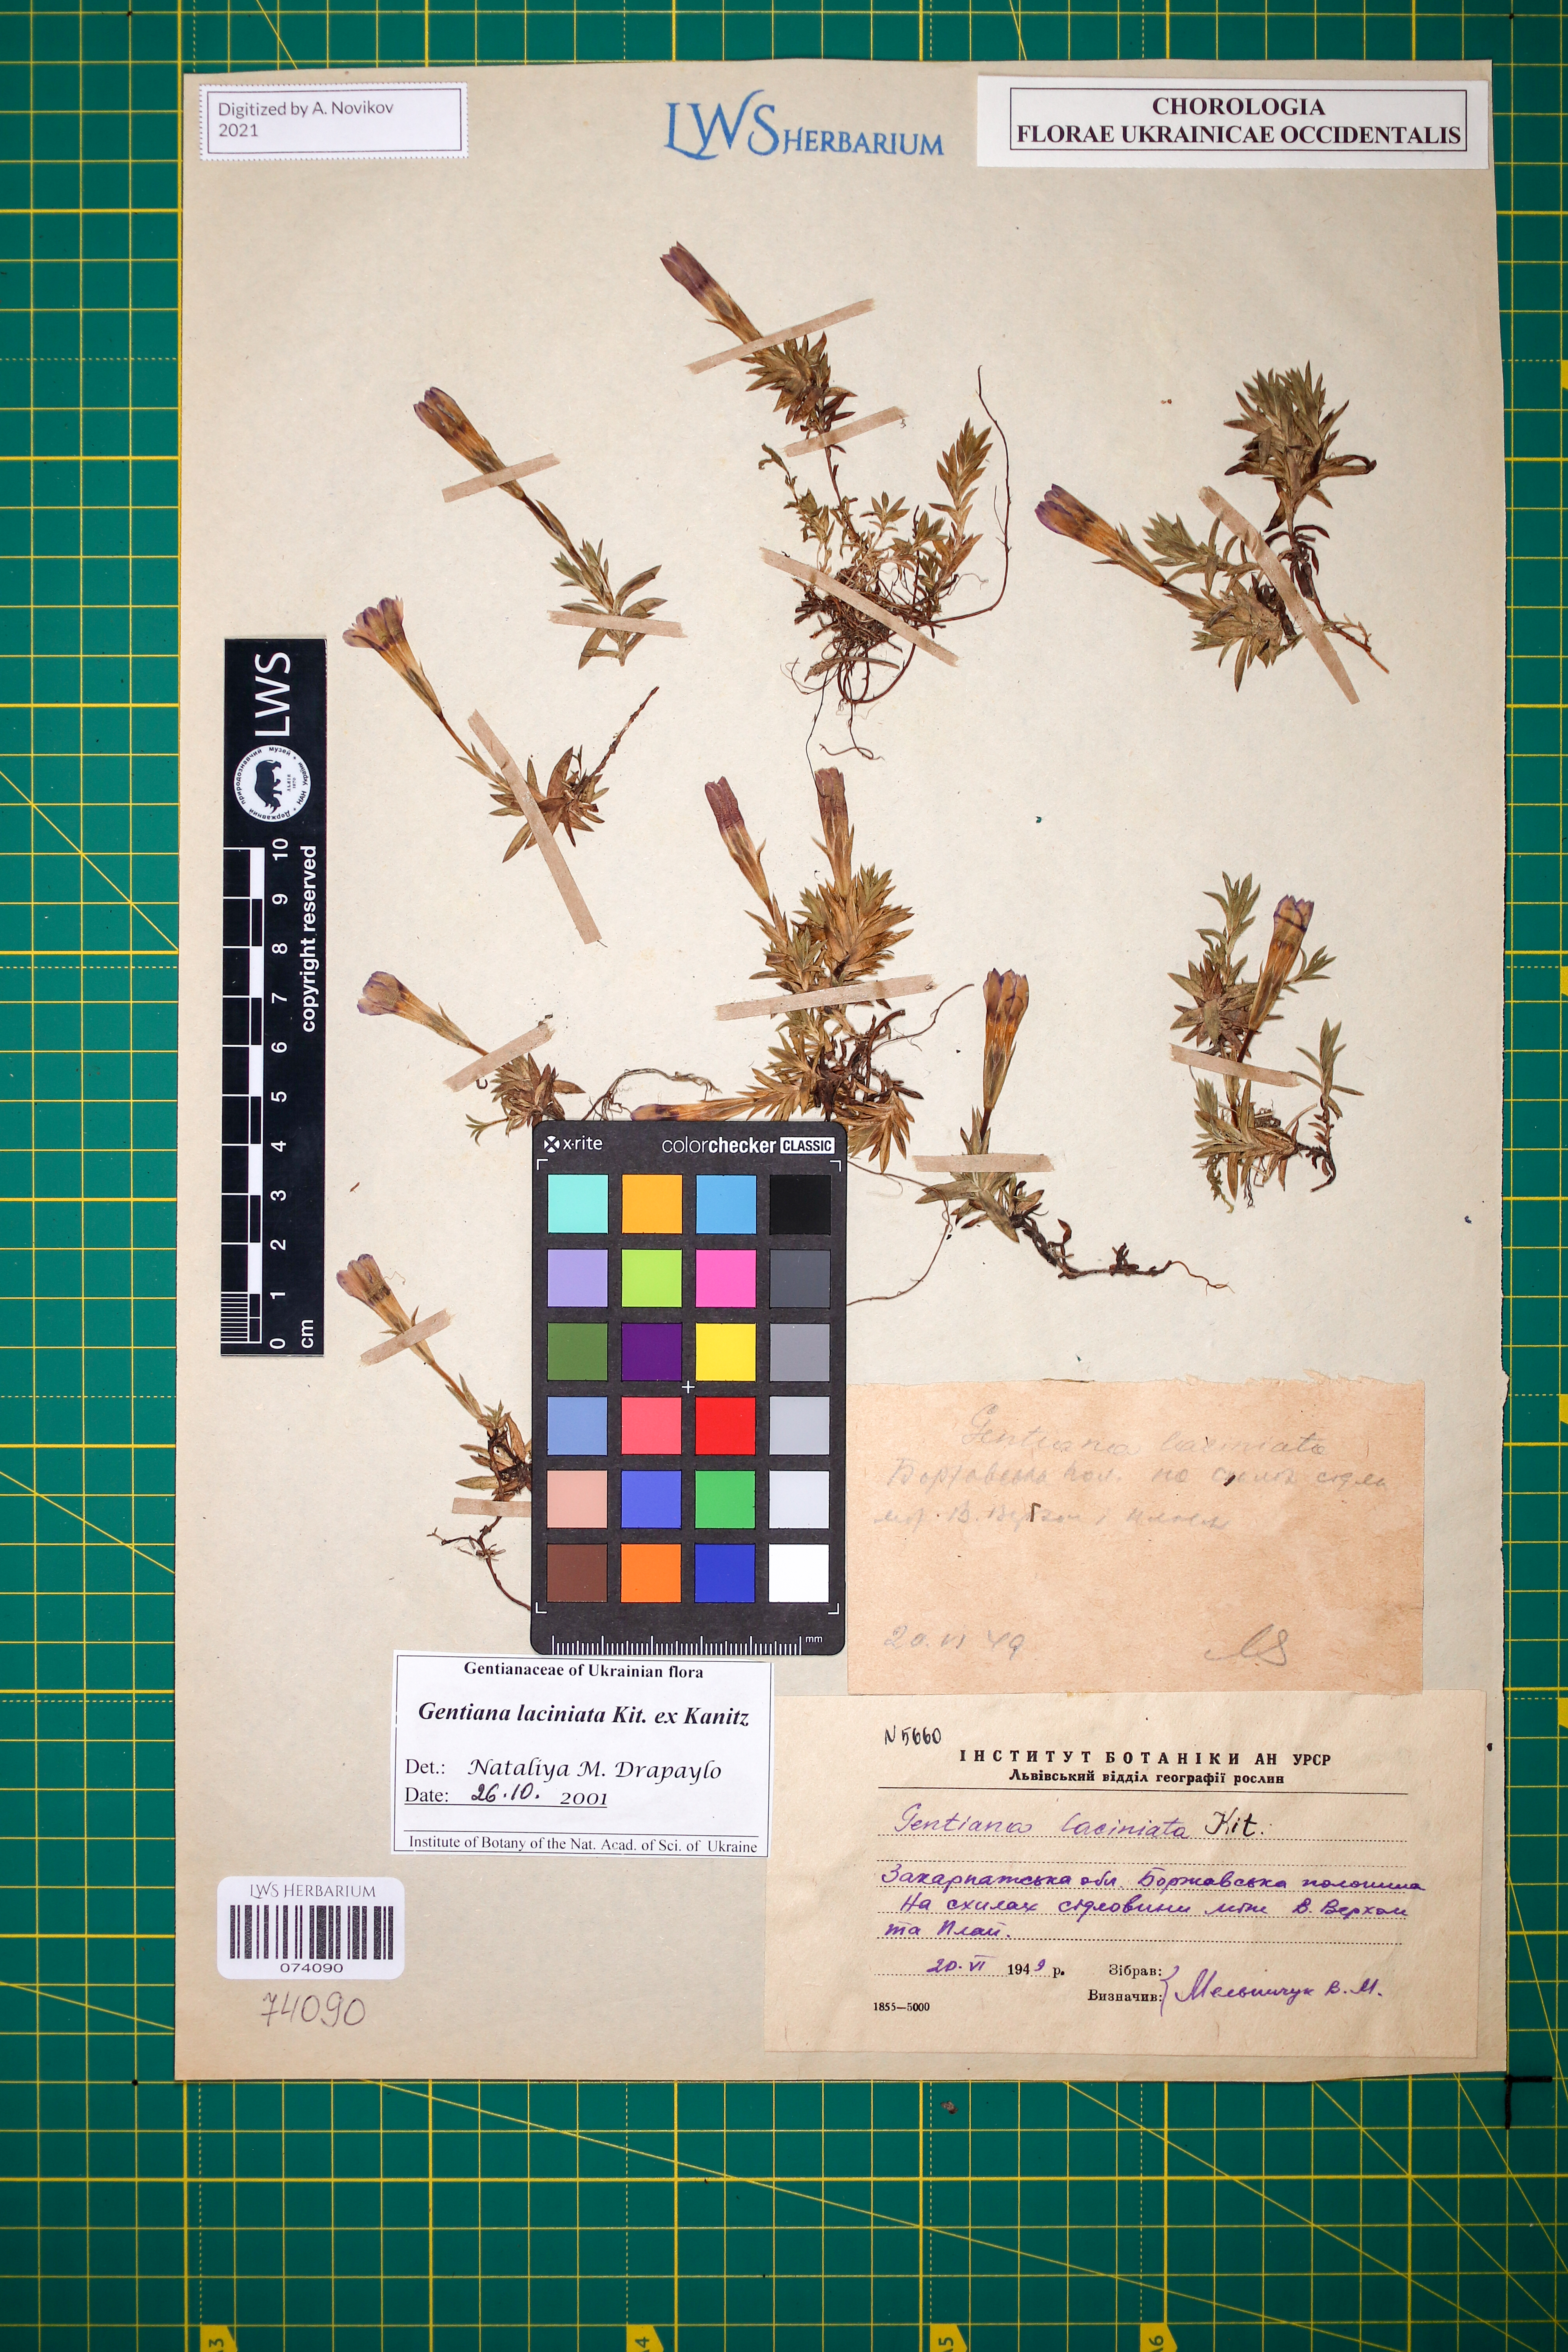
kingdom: Plantae
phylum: Tracheophyta
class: Magnoliopsida
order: Gentianales
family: Gentianaceae
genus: Gentiana
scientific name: Gentiana laciniata
